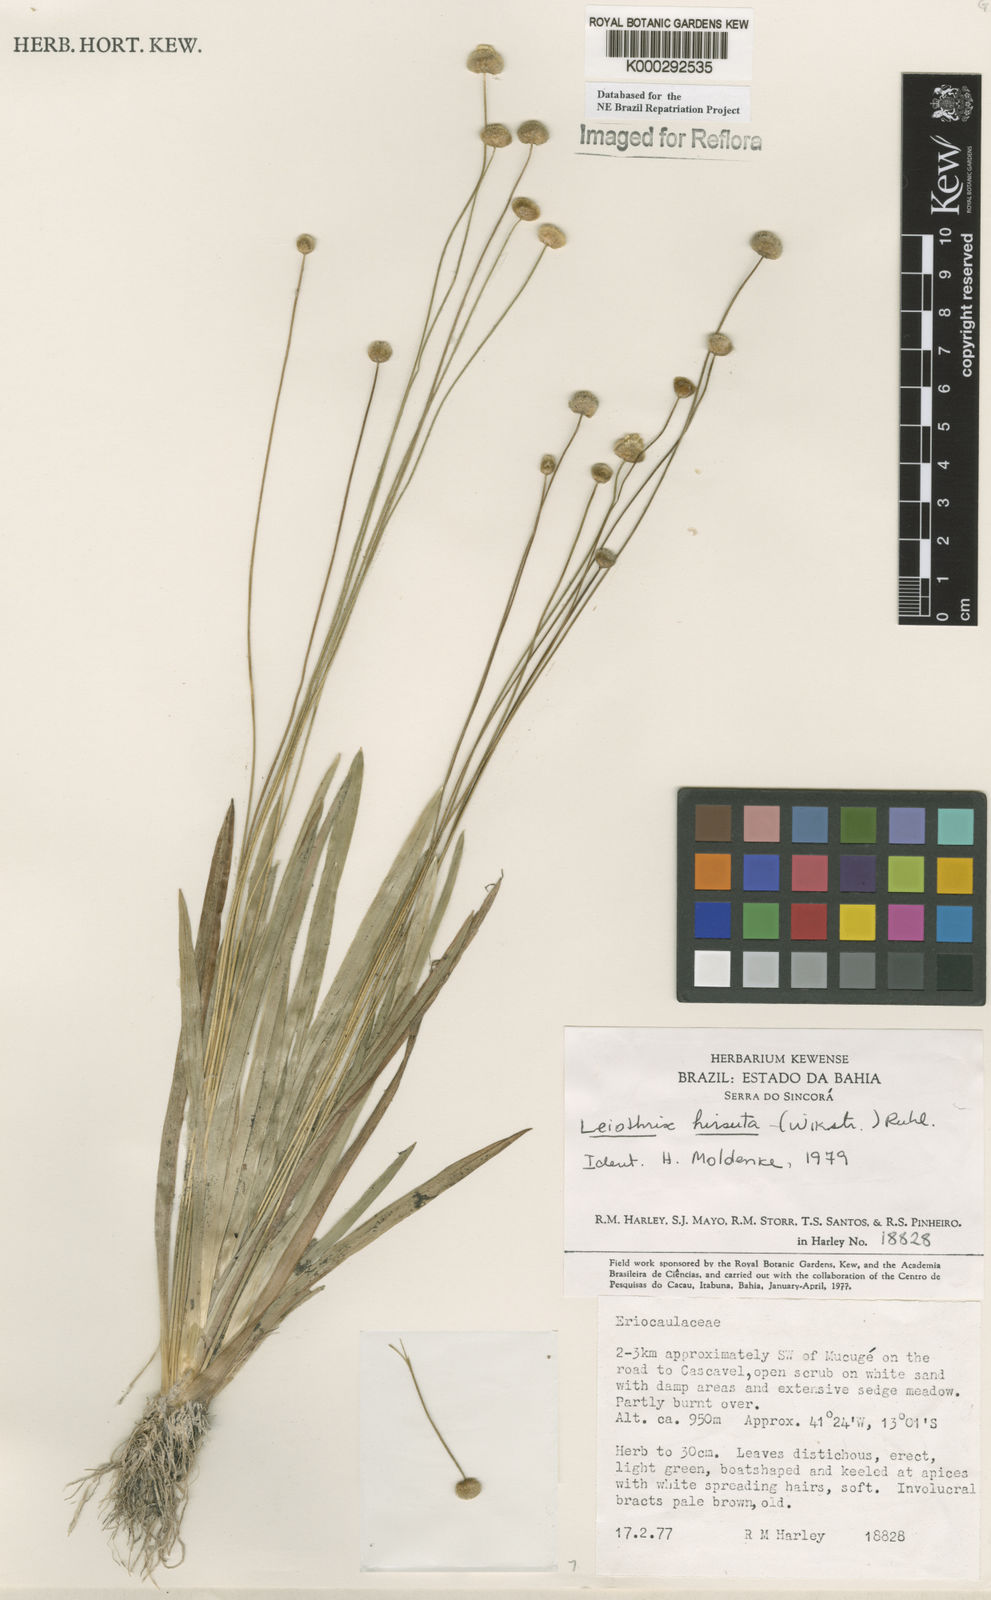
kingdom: Plantae
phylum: Tracheophyta
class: Liliopsida
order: Poales
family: Eriocaulaceae
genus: Leiothrix
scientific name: Leiothrix hirsuta
